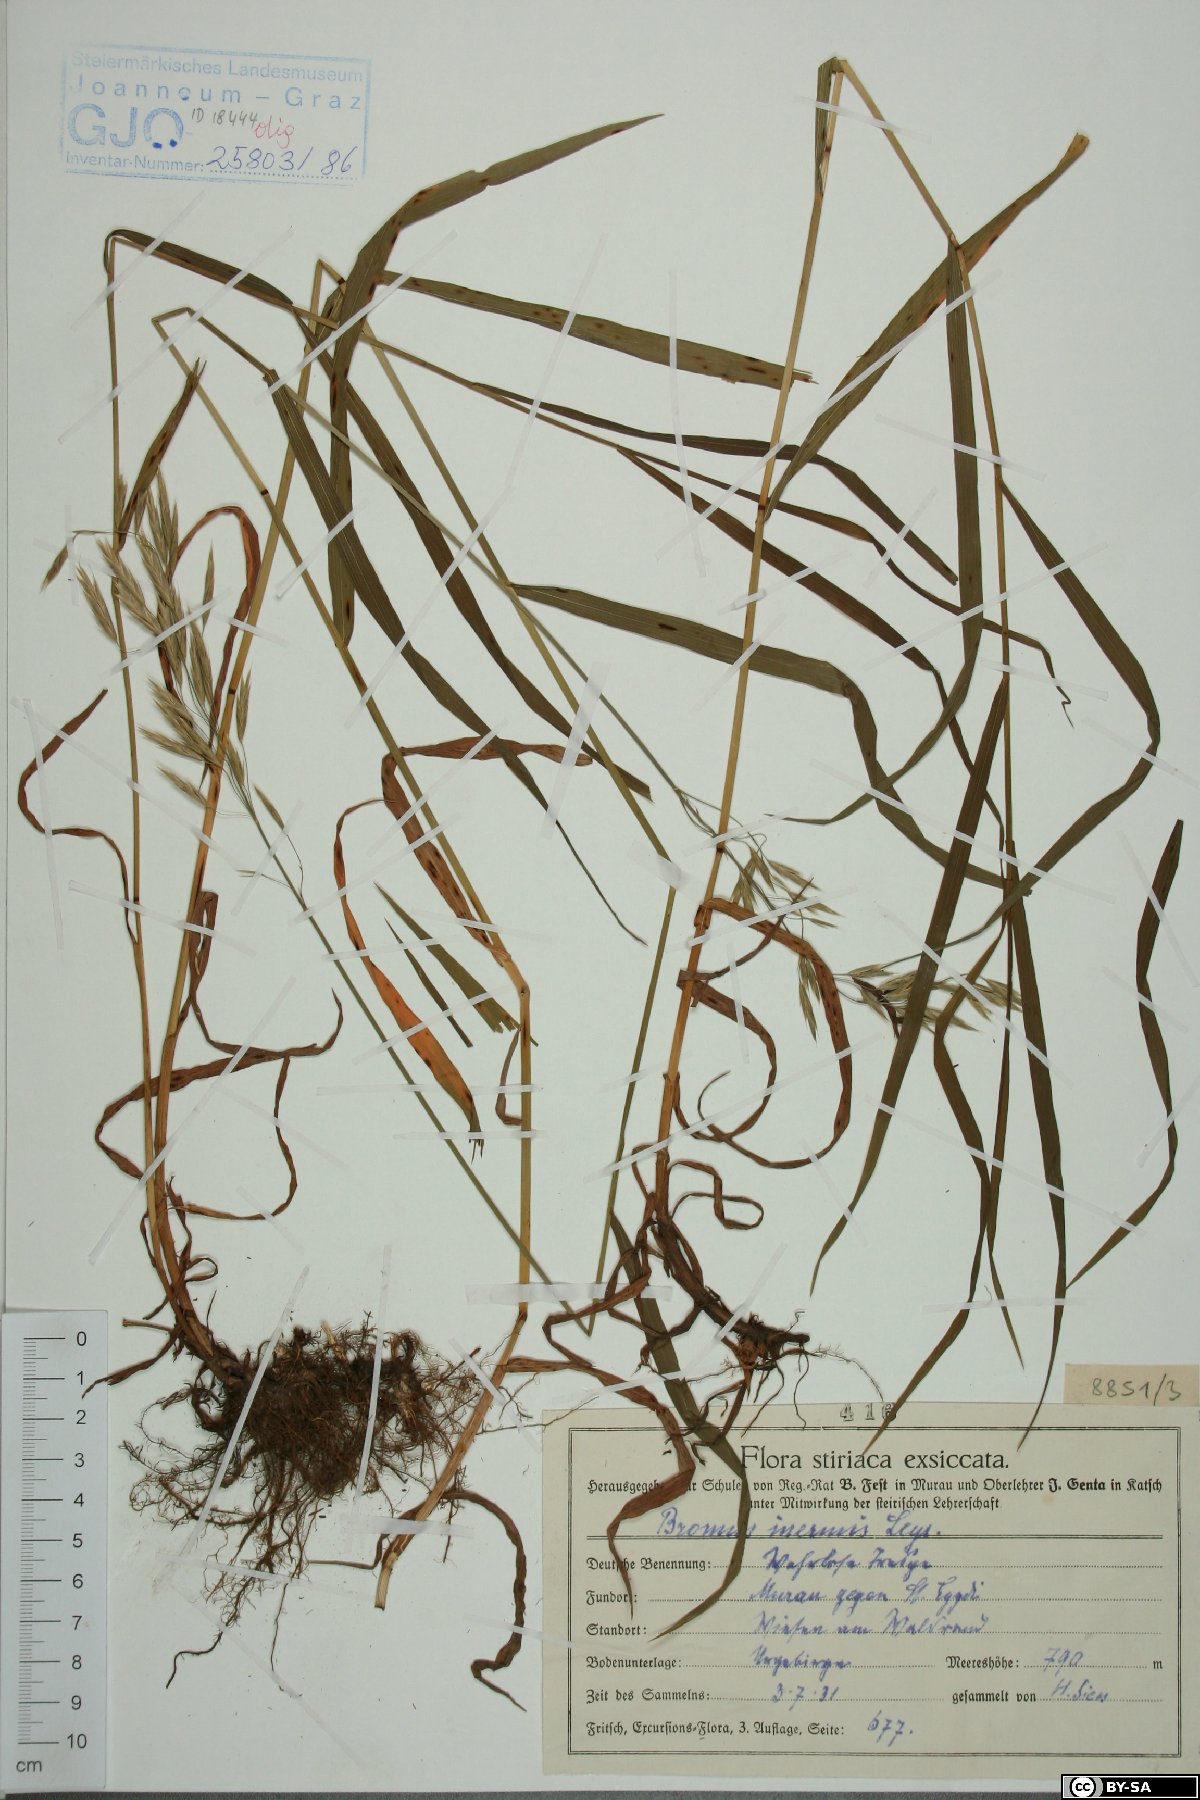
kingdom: Plantae
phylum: Tracheophyta
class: Liliopsida
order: Poales
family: Poaceae
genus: Bromus
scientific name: Bromus inermis
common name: Smooth brome
